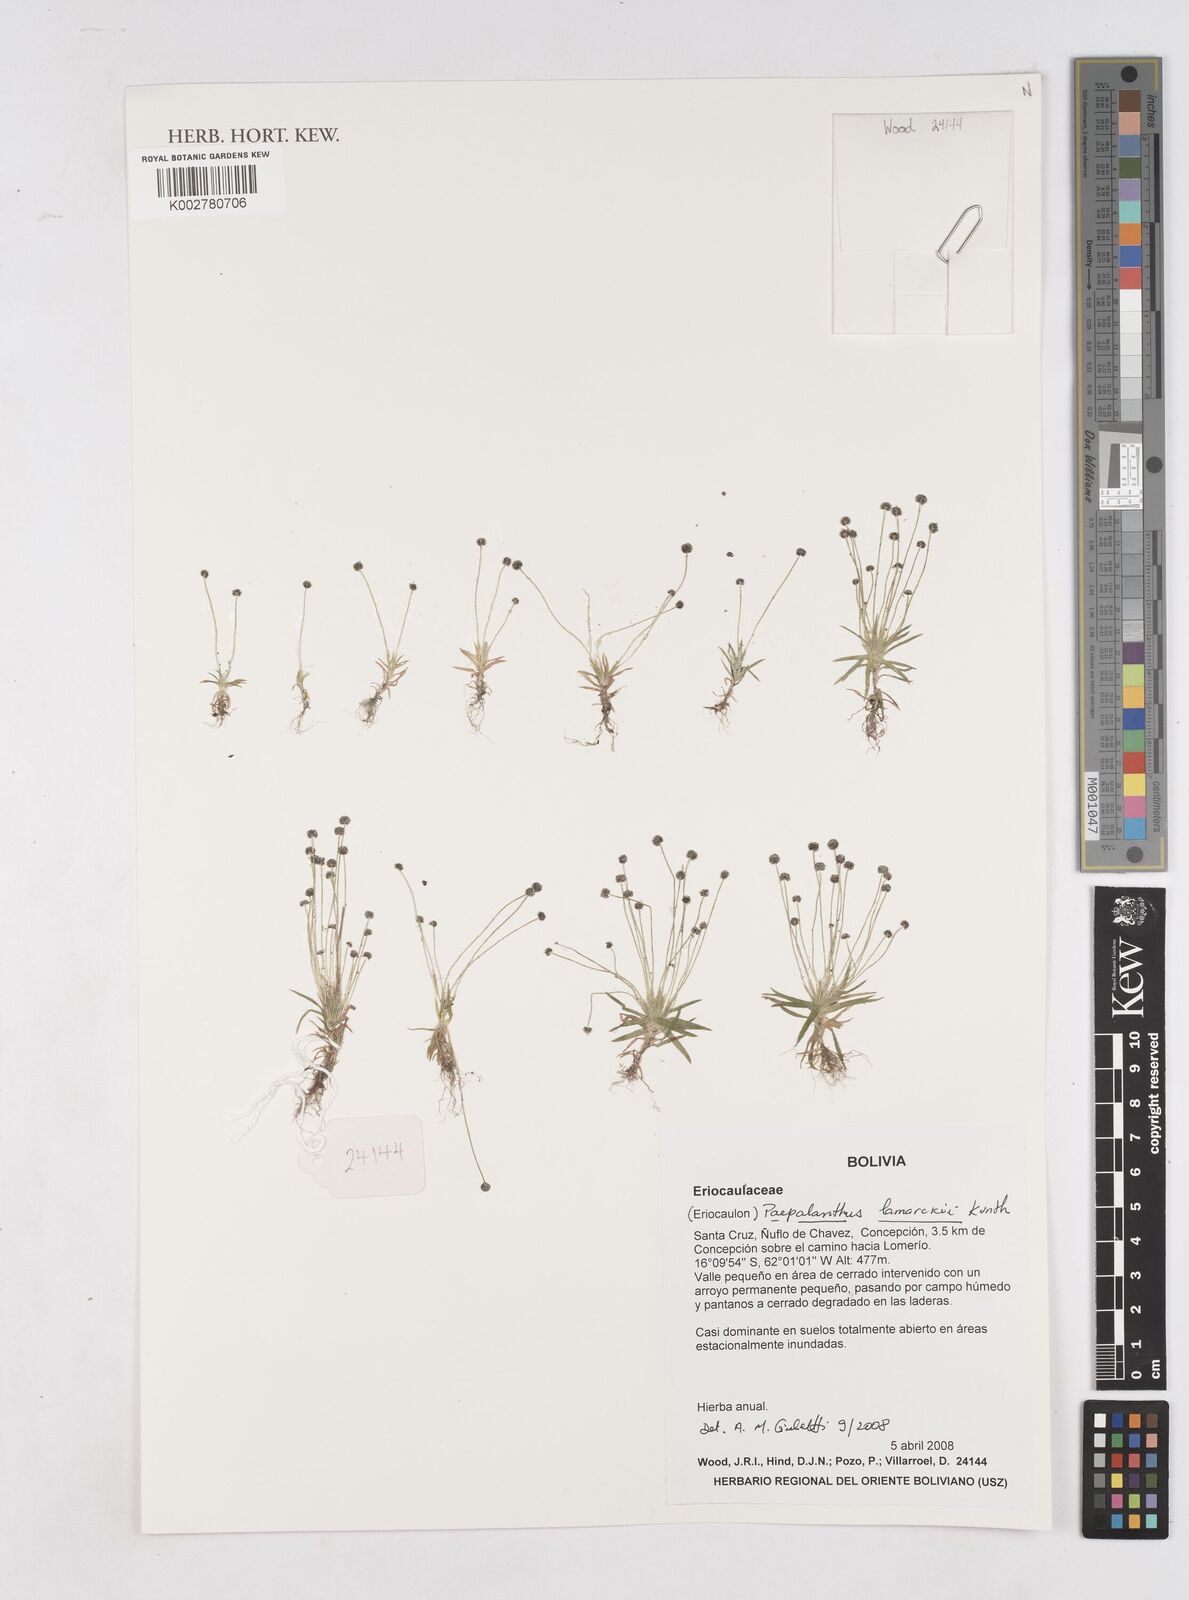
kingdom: Plantae
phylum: Tracheophyta
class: Liliopsida
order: Poales
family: Eriocaulaceae
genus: Paepalanthus
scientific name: Paepalanthus lamarckii
